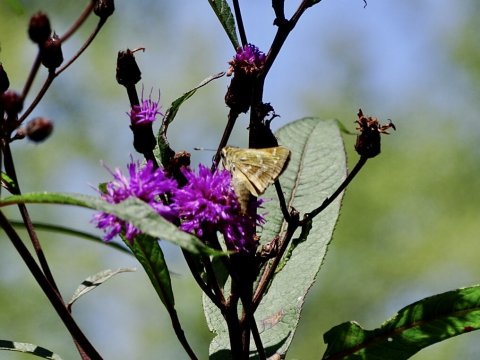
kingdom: Animalia
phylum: Arthropoda
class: Insecta
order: Lepidoptera
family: Hesperiidae
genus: Atalopedes
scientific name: Atalopedes campestris
